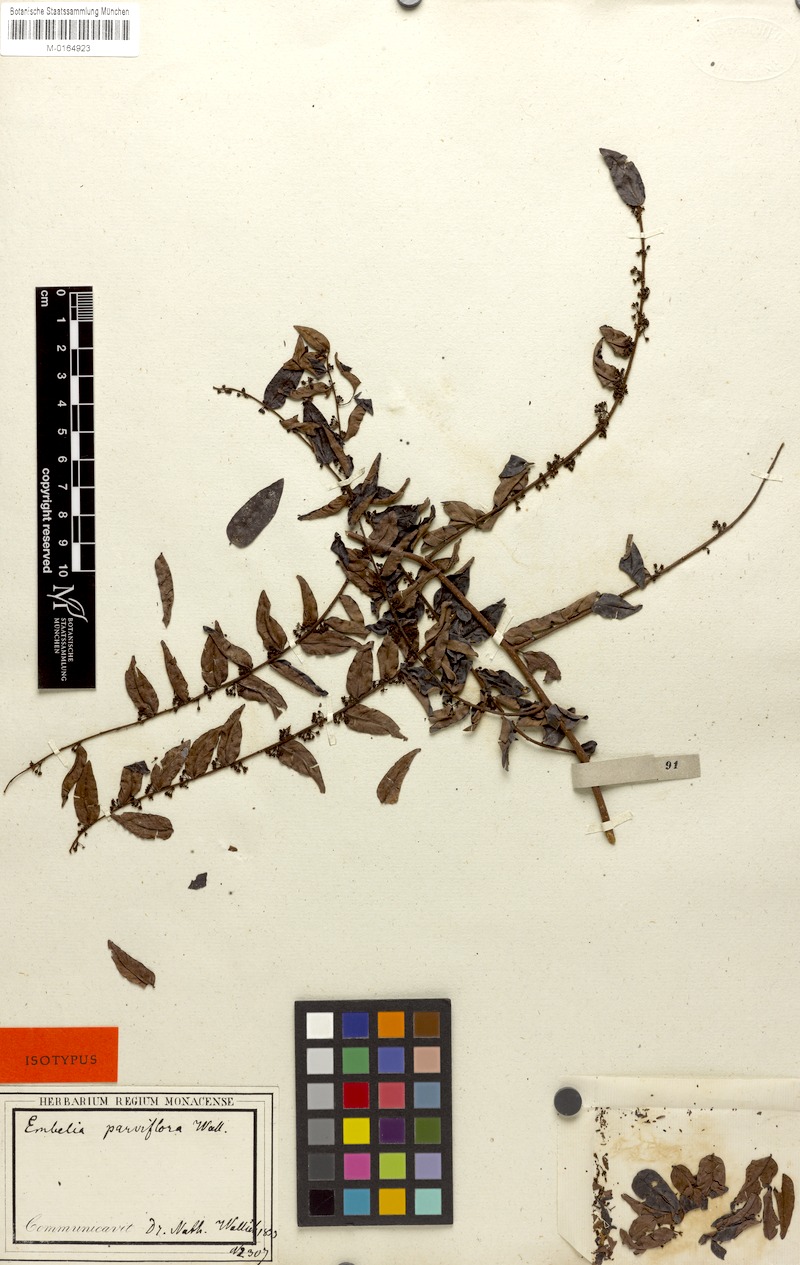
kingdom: Plantae
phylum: Tracheophyta
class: Magnoliopsida
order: Ericales
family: Primulaceae
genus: Embelia
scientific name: Embelia parviflora
